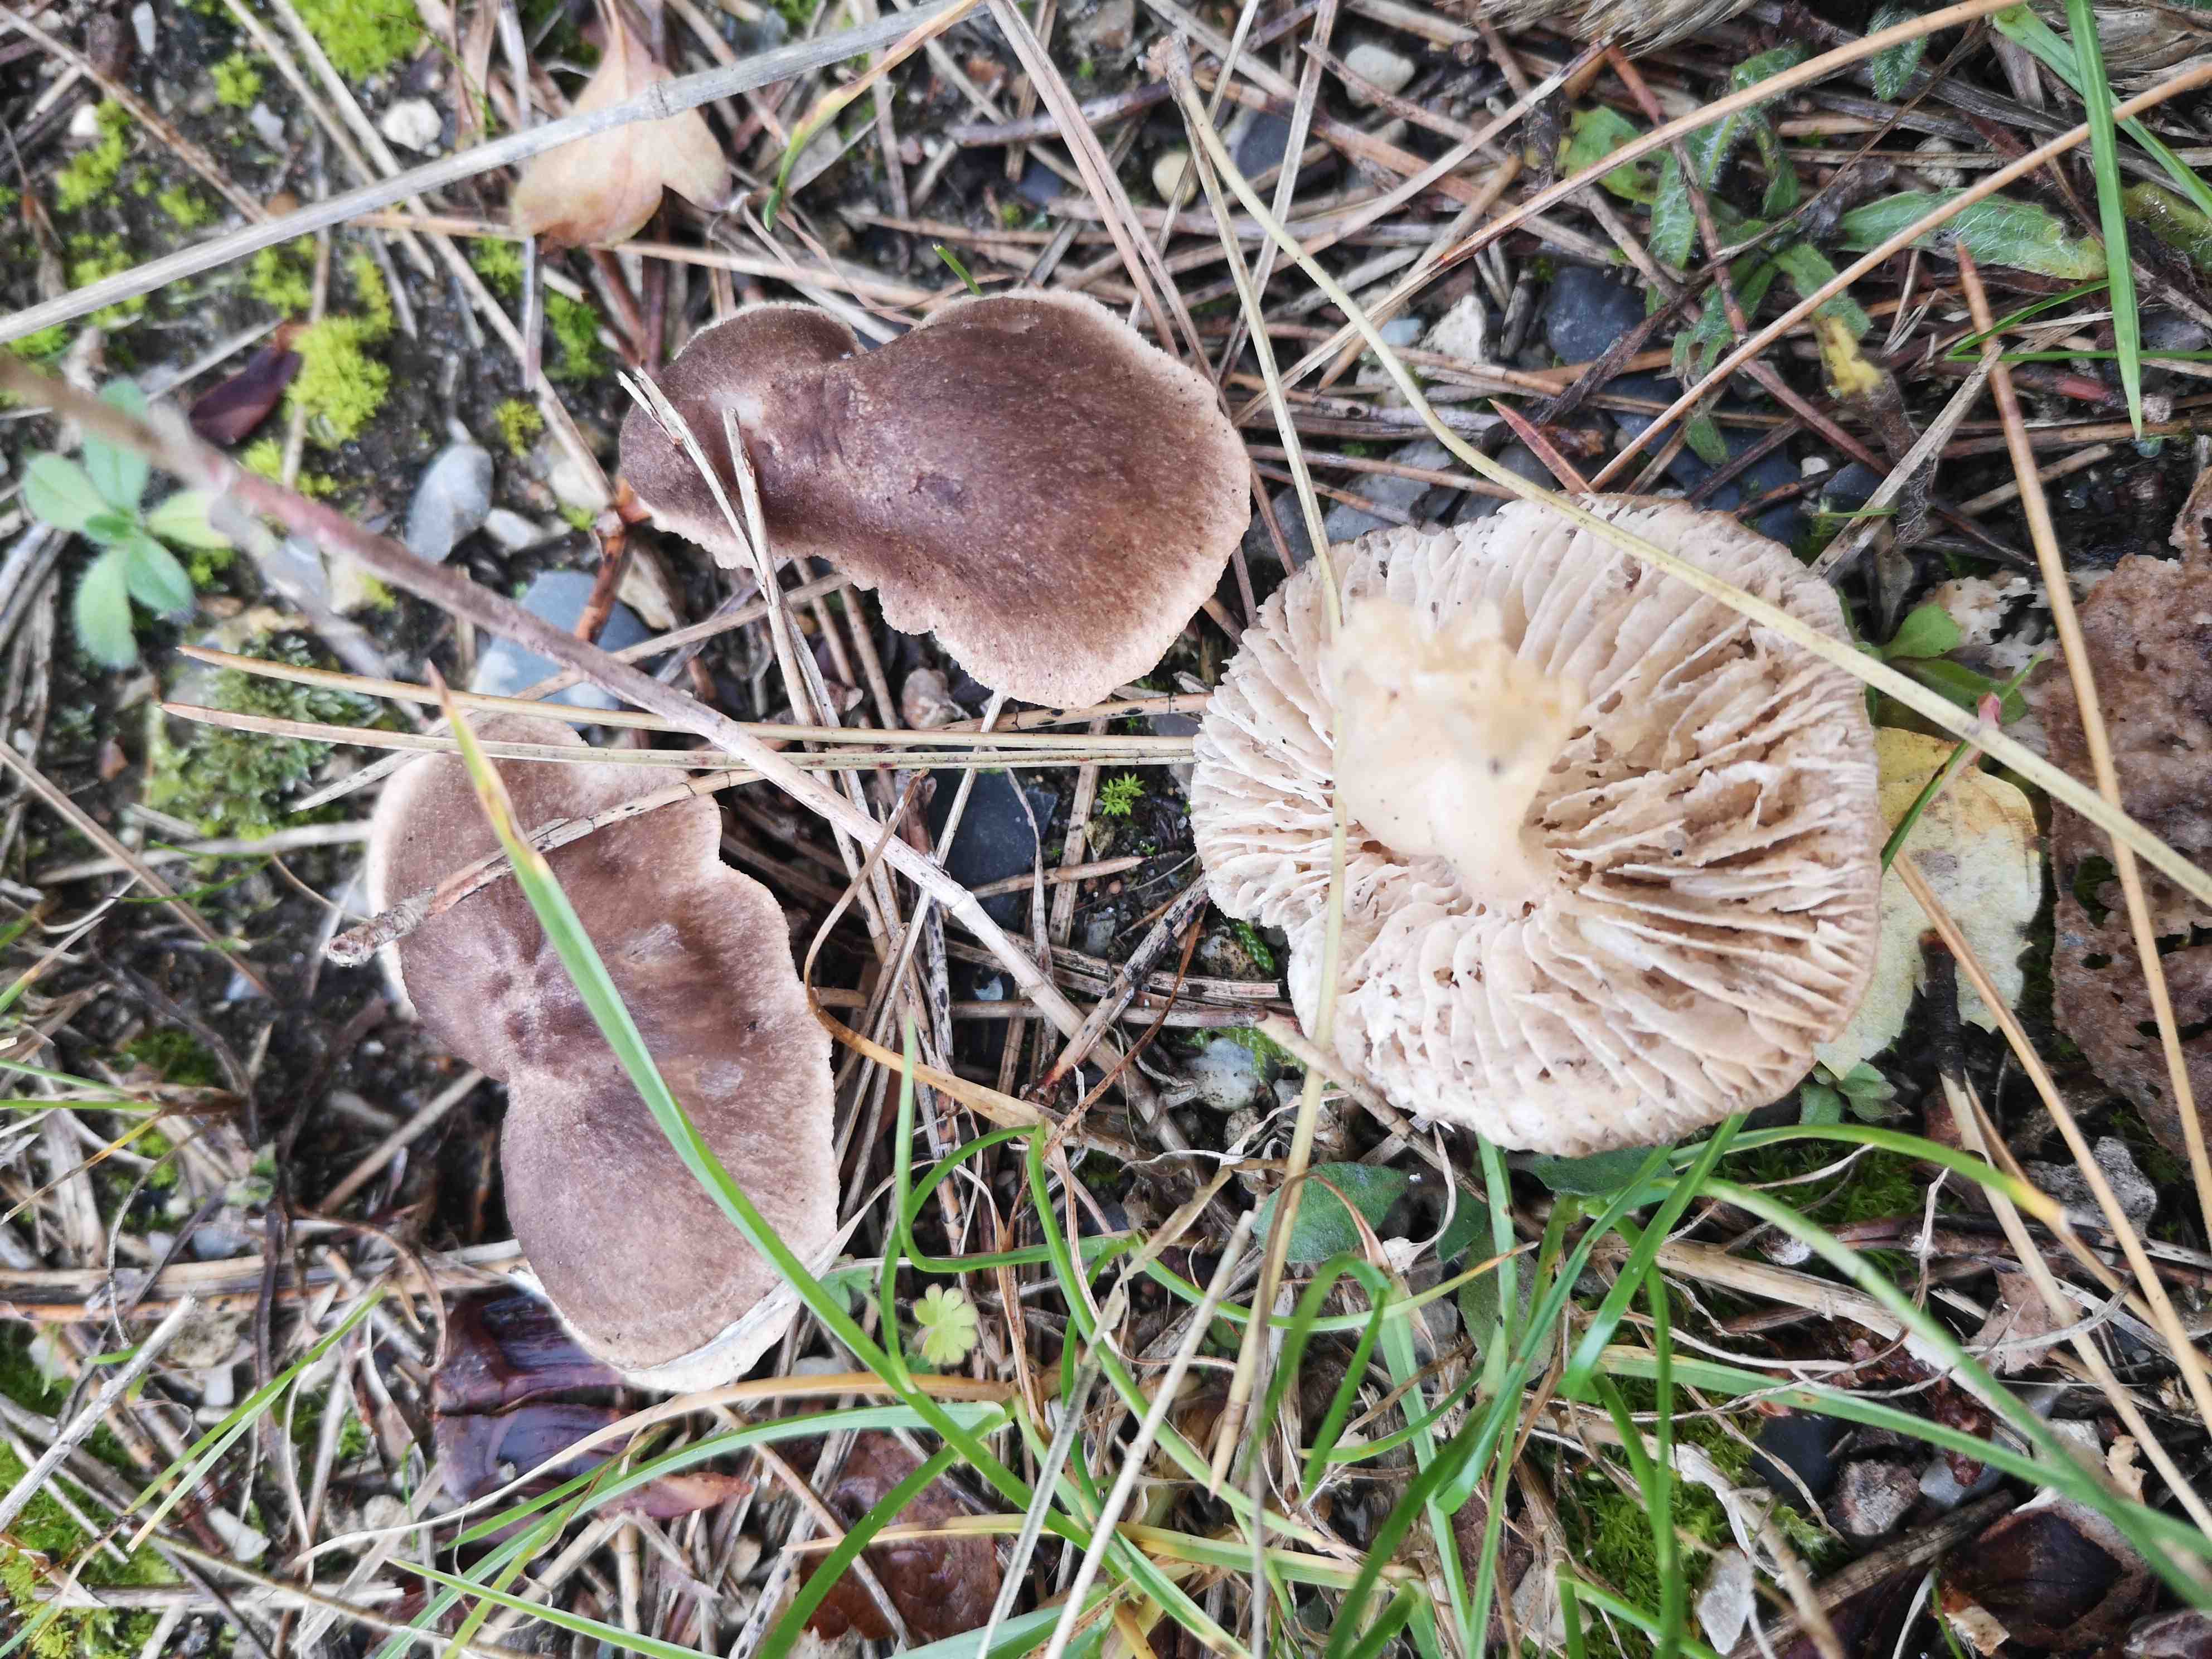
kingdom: Fungi
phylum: Basidiomycota
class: Agaricomycetes
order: Agaricales
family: Tricholomataceae
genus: Tricholoma
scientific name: Tricholoma terreum
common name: jordfarvet ridderhat
